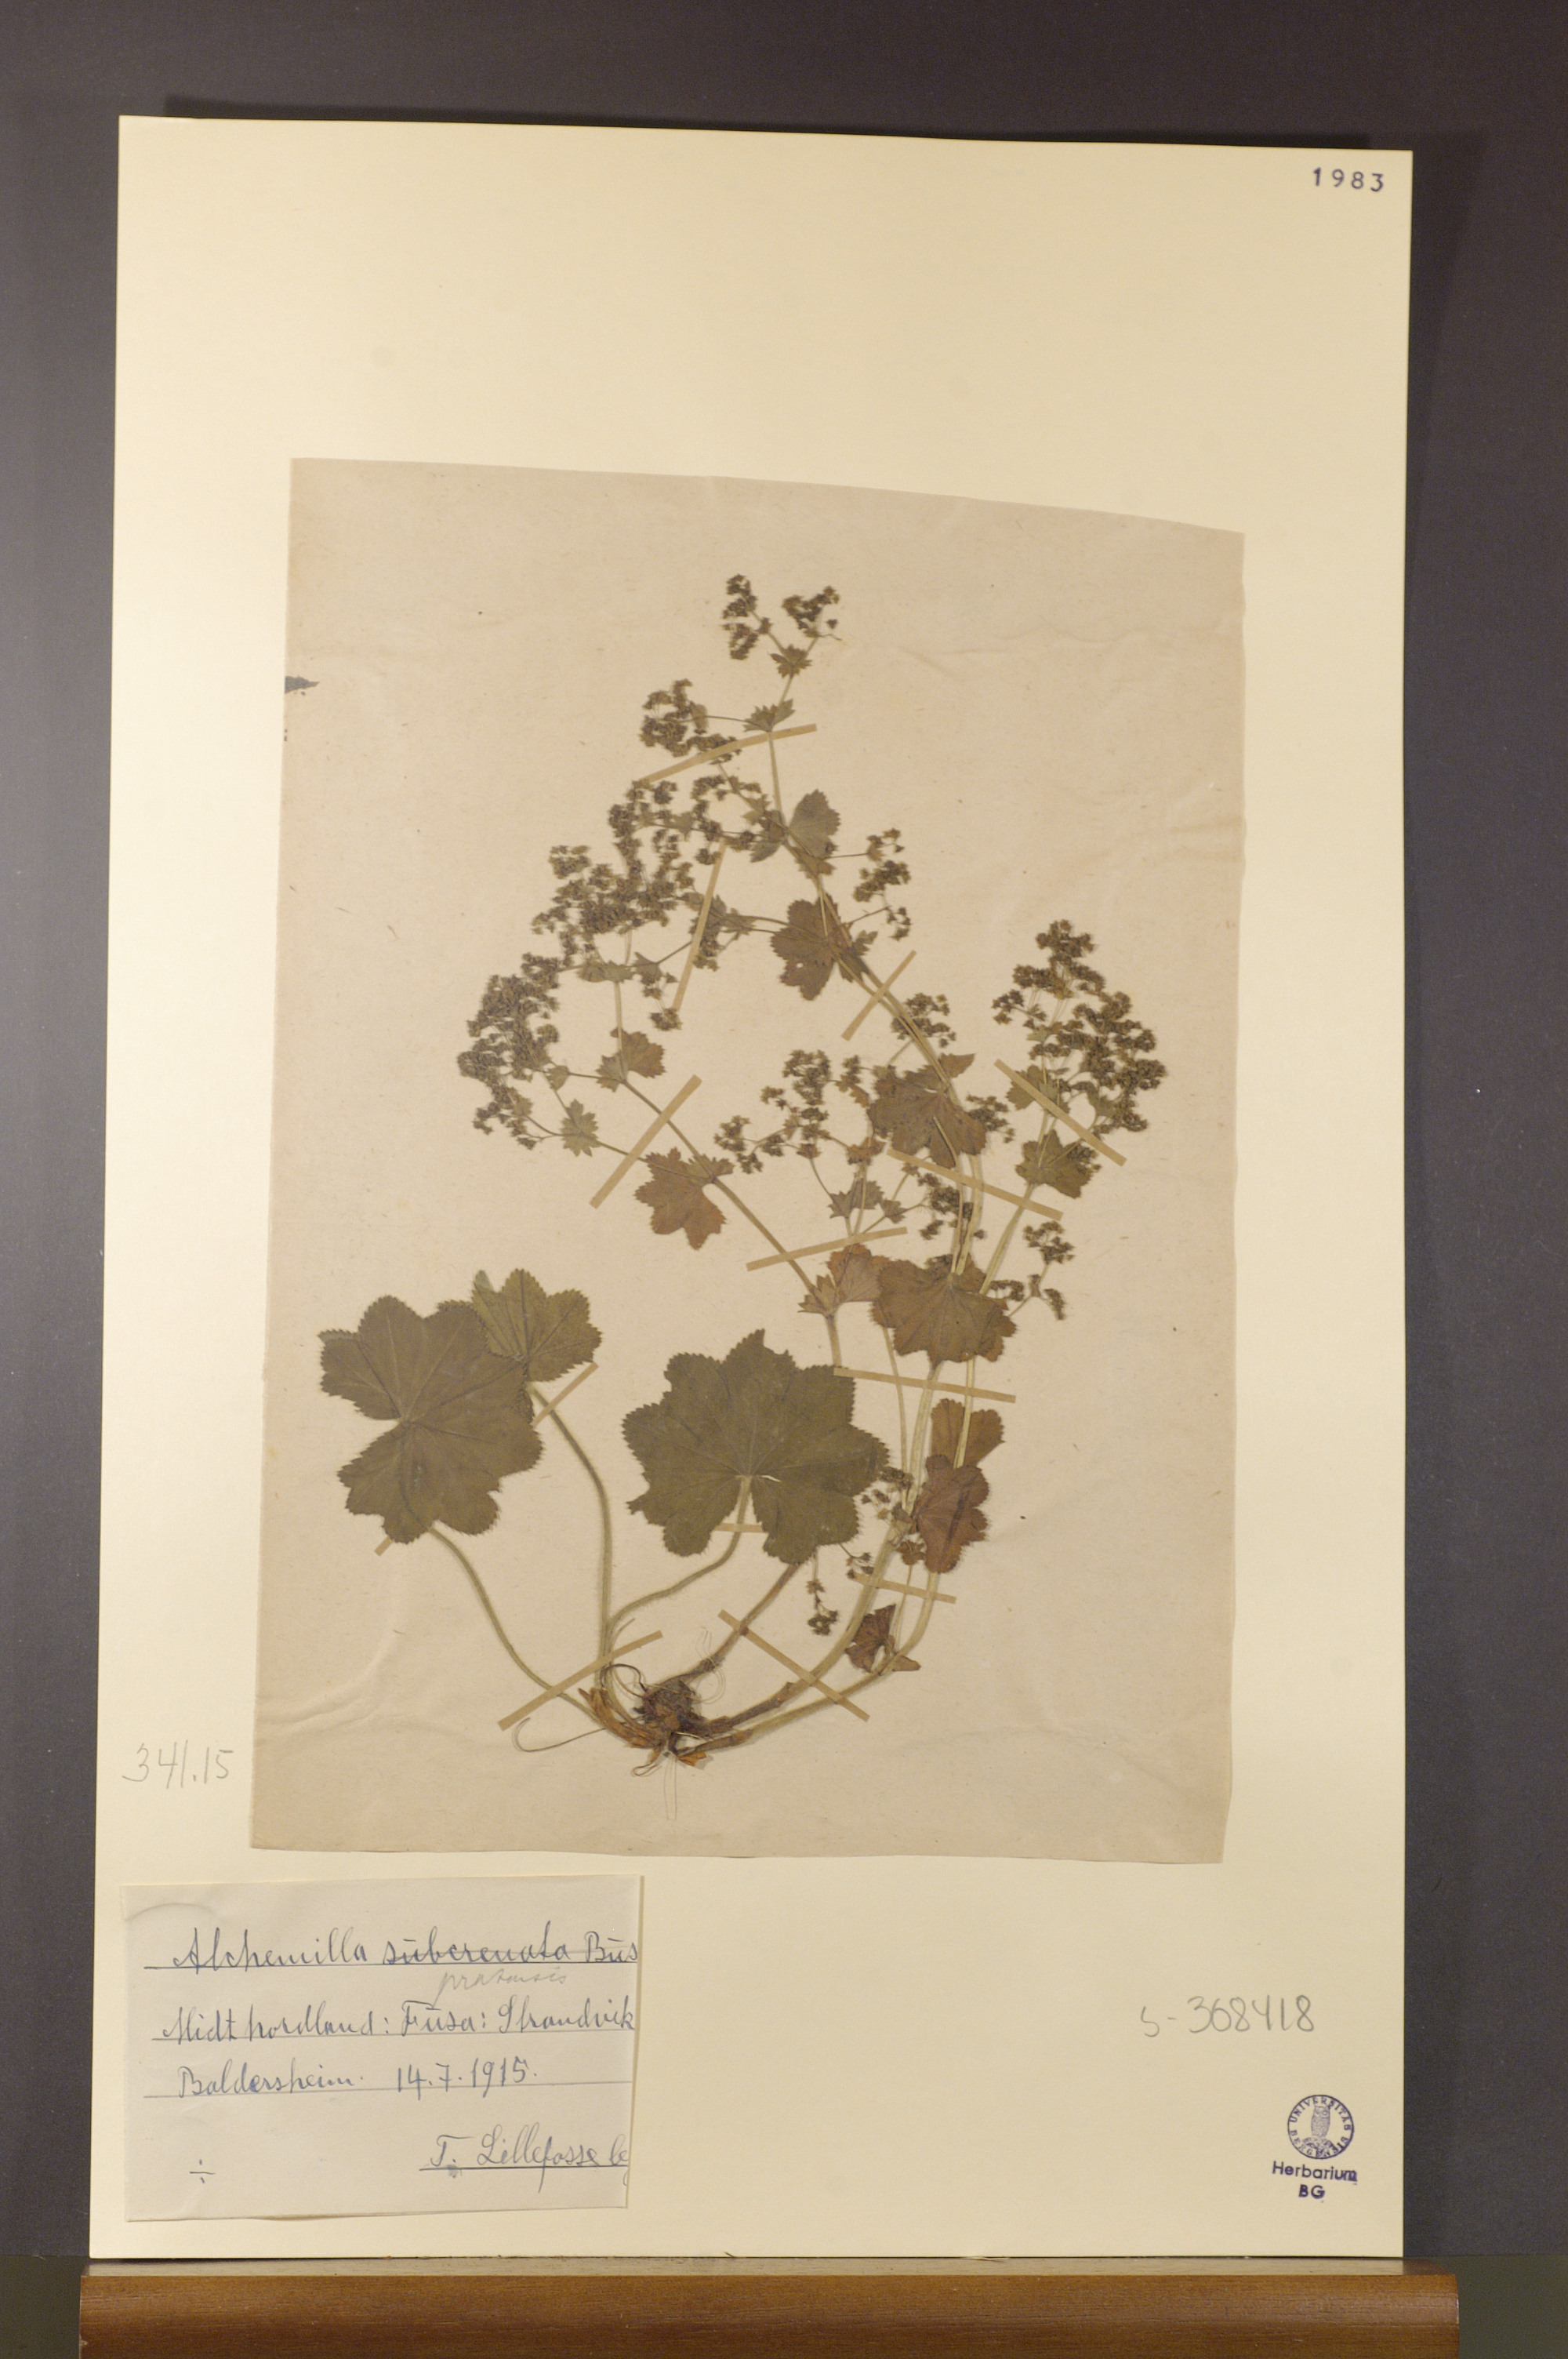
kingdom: Plantae
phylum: Tracheophyta
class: Magnoliopsida
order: Rosales
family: Rosaceae
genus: Alchemilla
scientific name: Alchemilla xanthochlora
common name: Intermediate lady's-mantle
